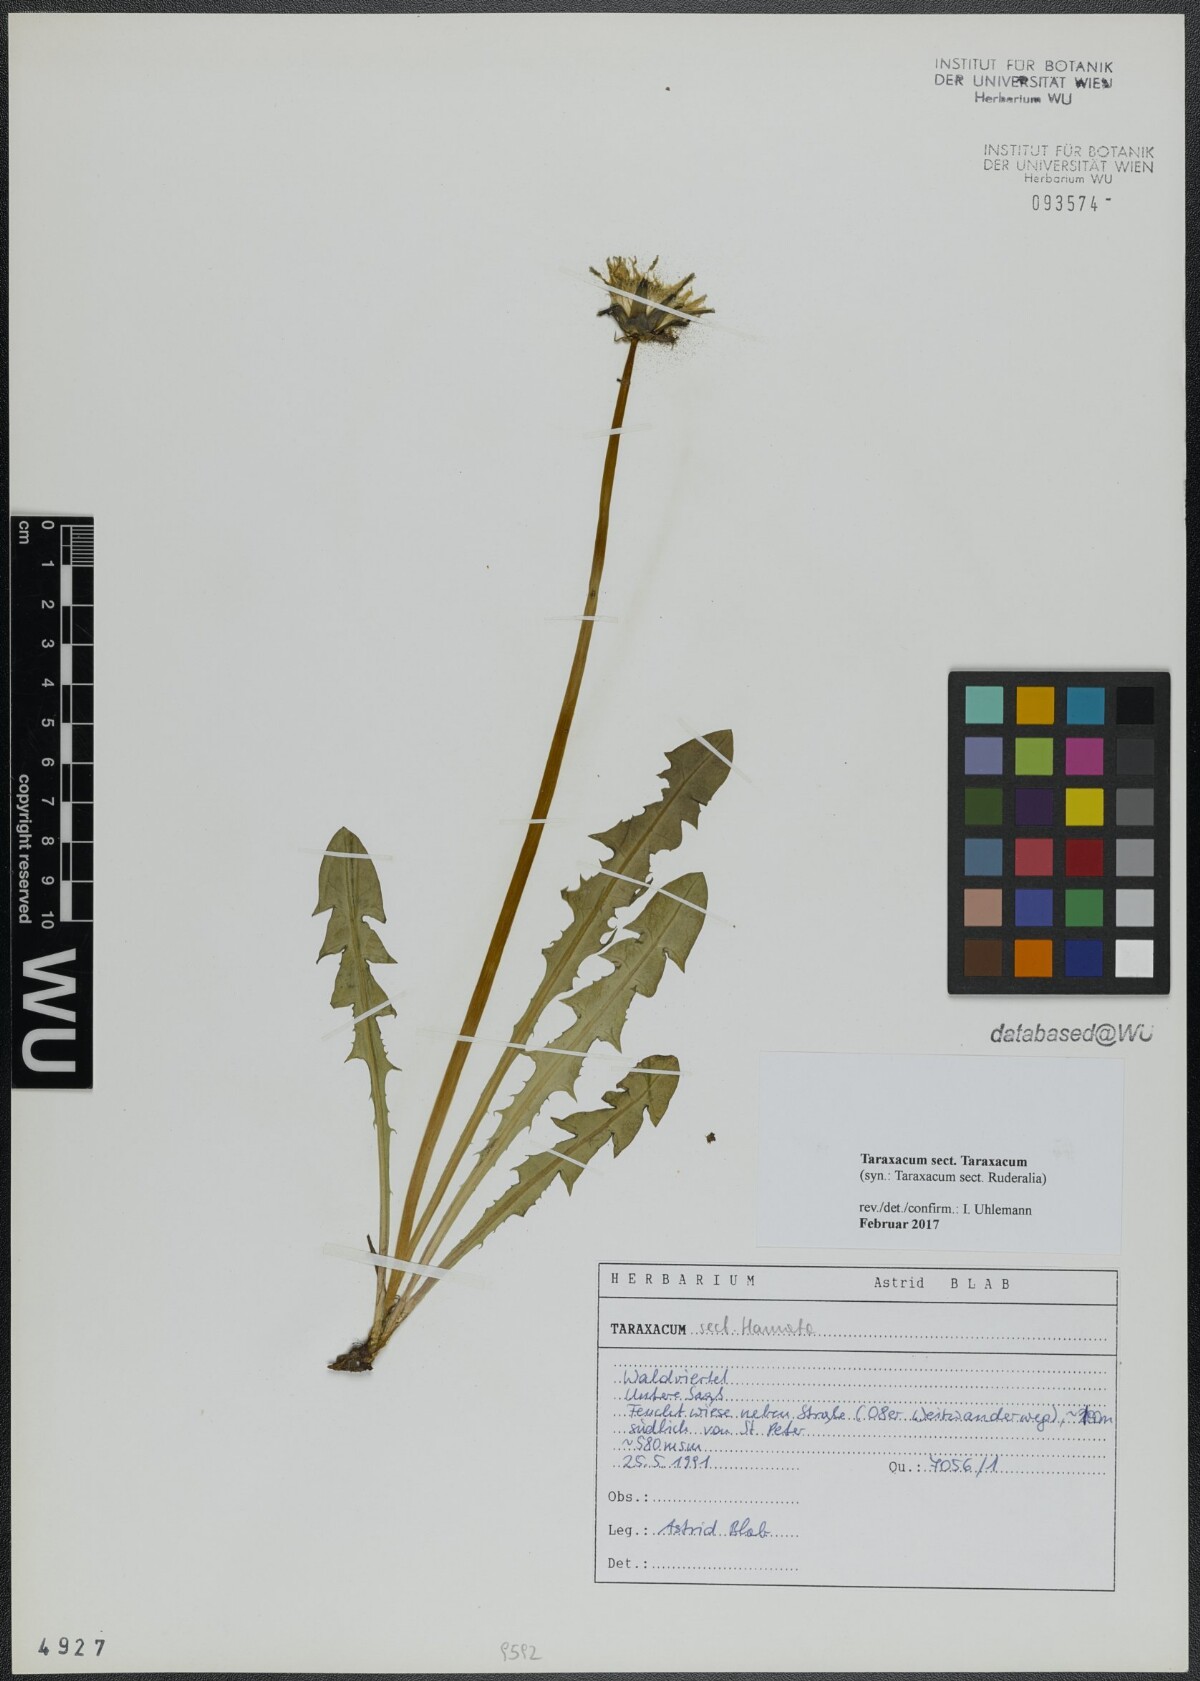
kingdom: Plantae
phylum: Tracheophyta
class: Magnoliopsida
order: Asterales
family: Asteraceae
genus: Taraxacum
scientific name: Taraxacum
